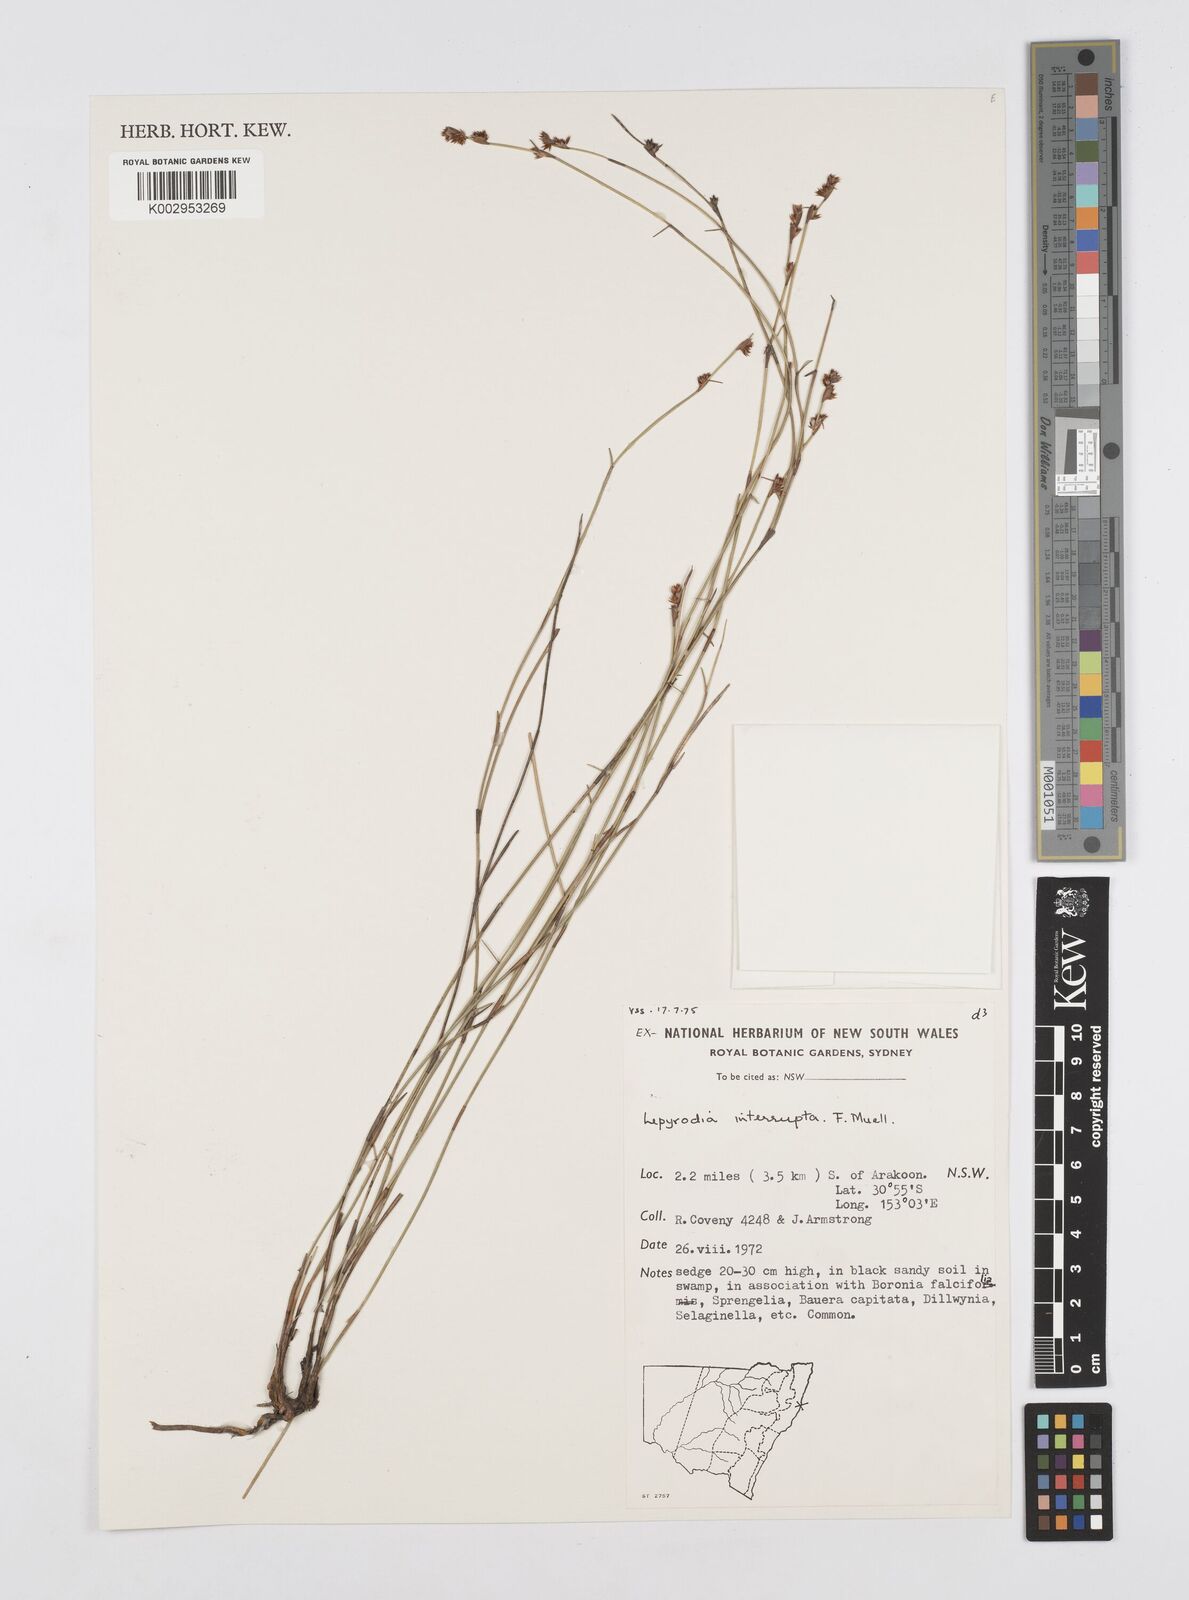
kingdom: Plantae
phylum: Tracheophyta
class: Liliopsida
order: Poales
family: Restionaceae
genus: Sporadanthus
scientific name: Sporadanthus interruptus
